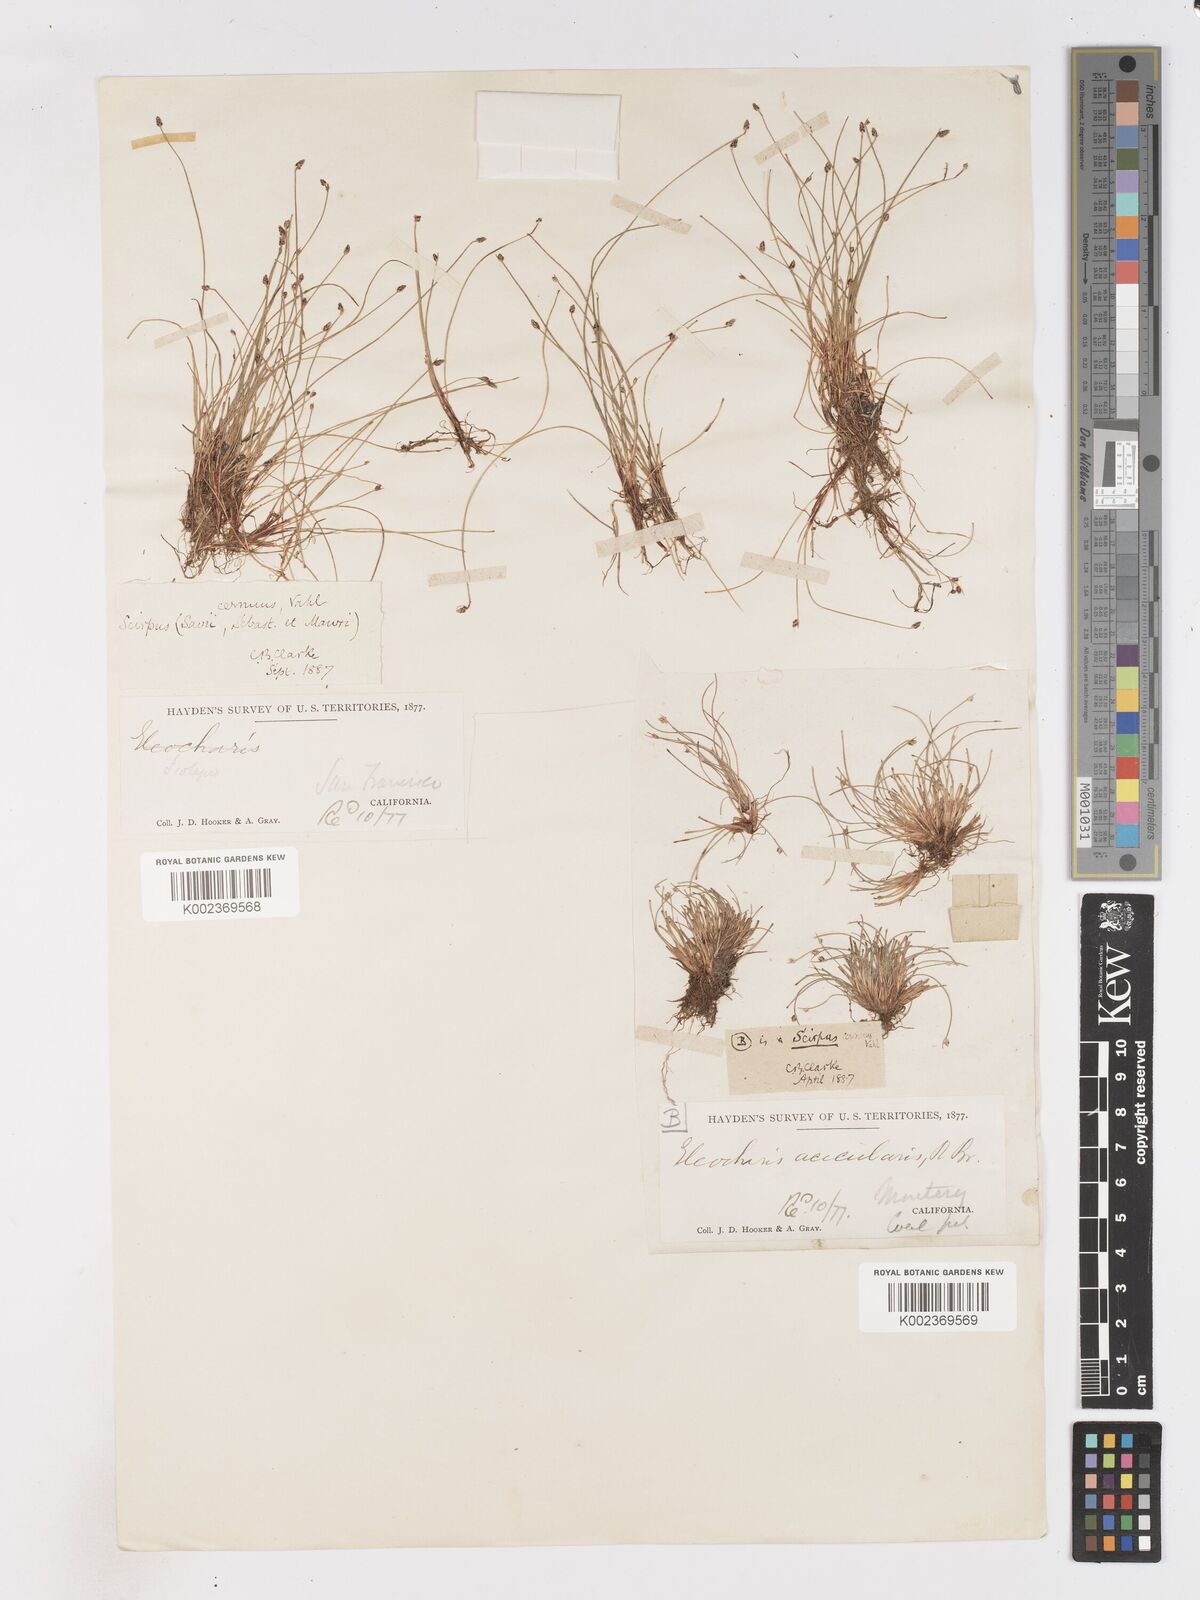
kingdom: Plantae
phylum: Tracheophyta
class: Liliopsida
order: Poales
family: Cyperaceae
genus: Isolepis
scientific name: Isolepis cernua
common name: Slender club-rush
